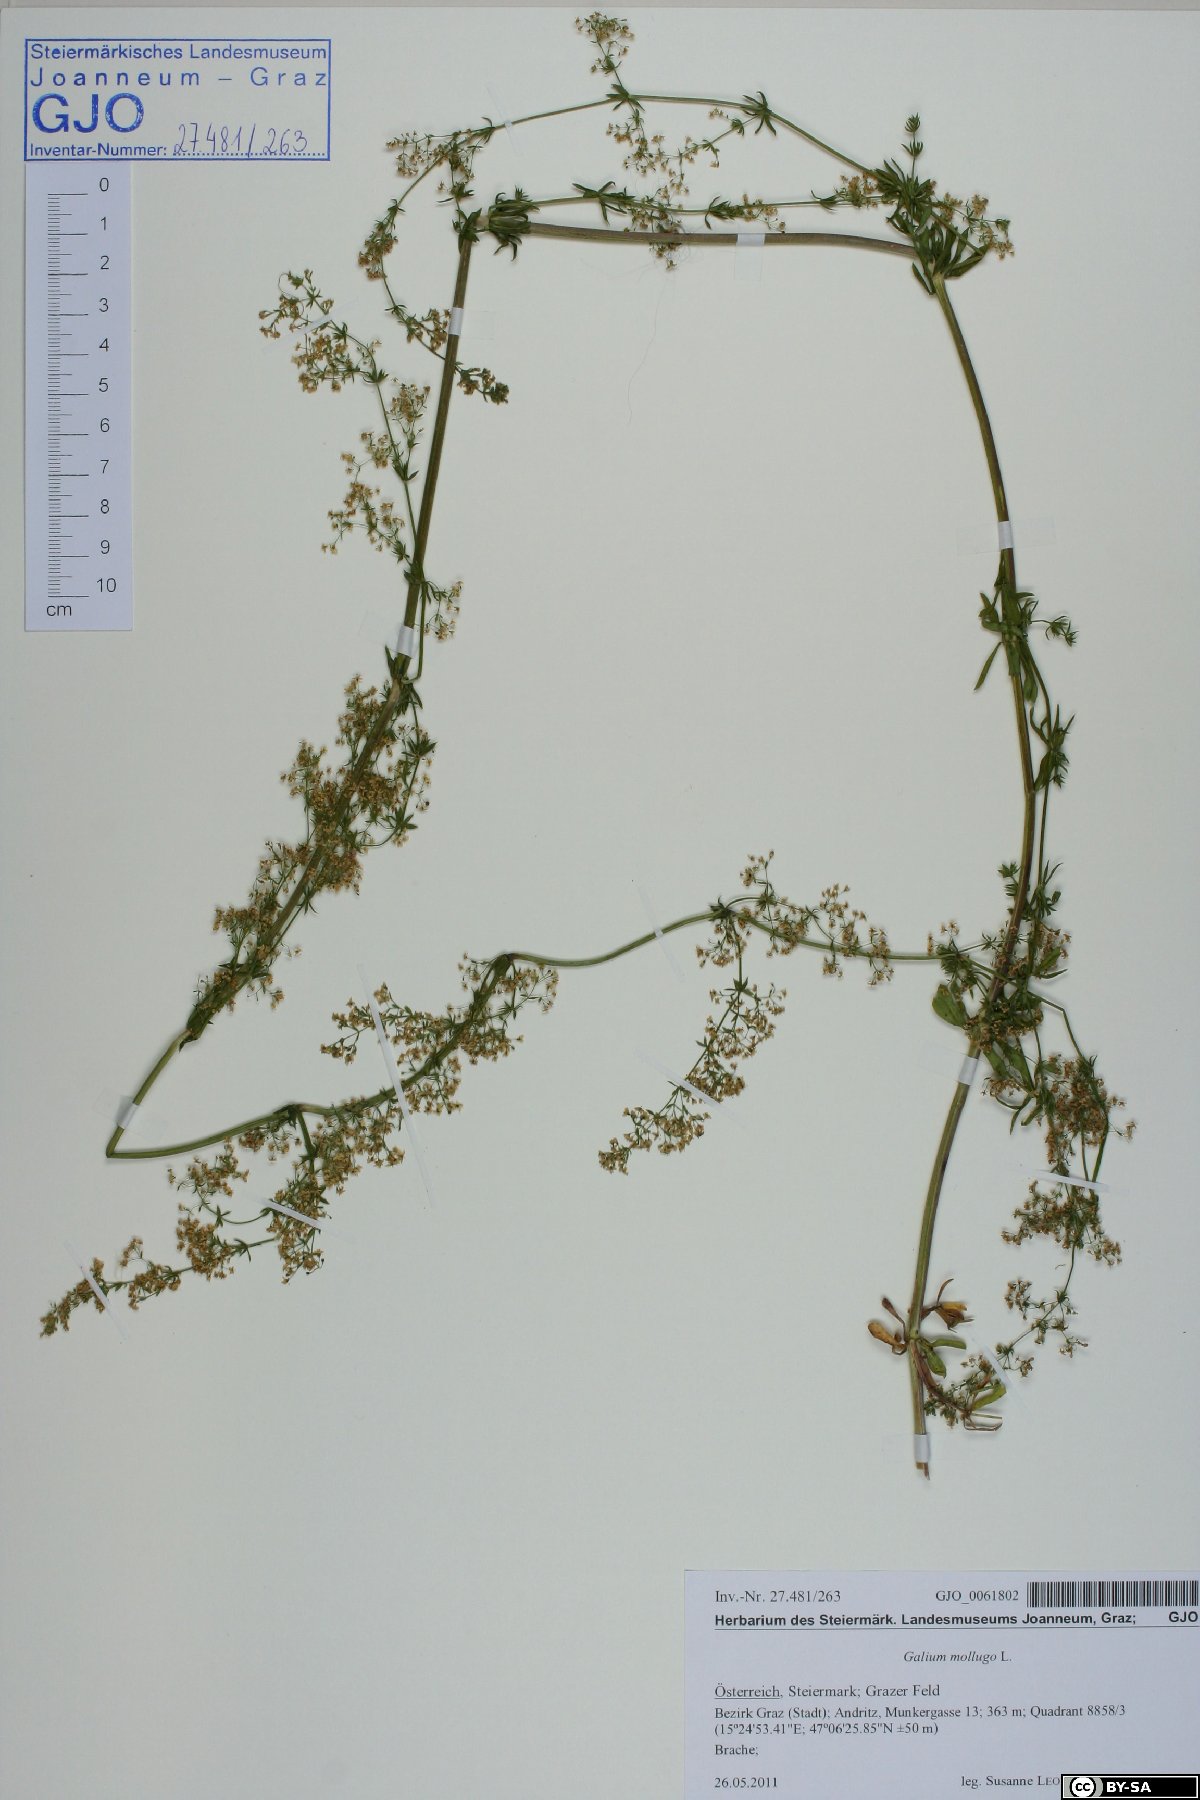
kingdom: Plantae
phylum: Tracheophyta
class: Magnoliopsida
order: Gentianales
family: Rubiaceae
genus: Galium
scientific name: Galium mollugo
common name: Hedge bedstraw
